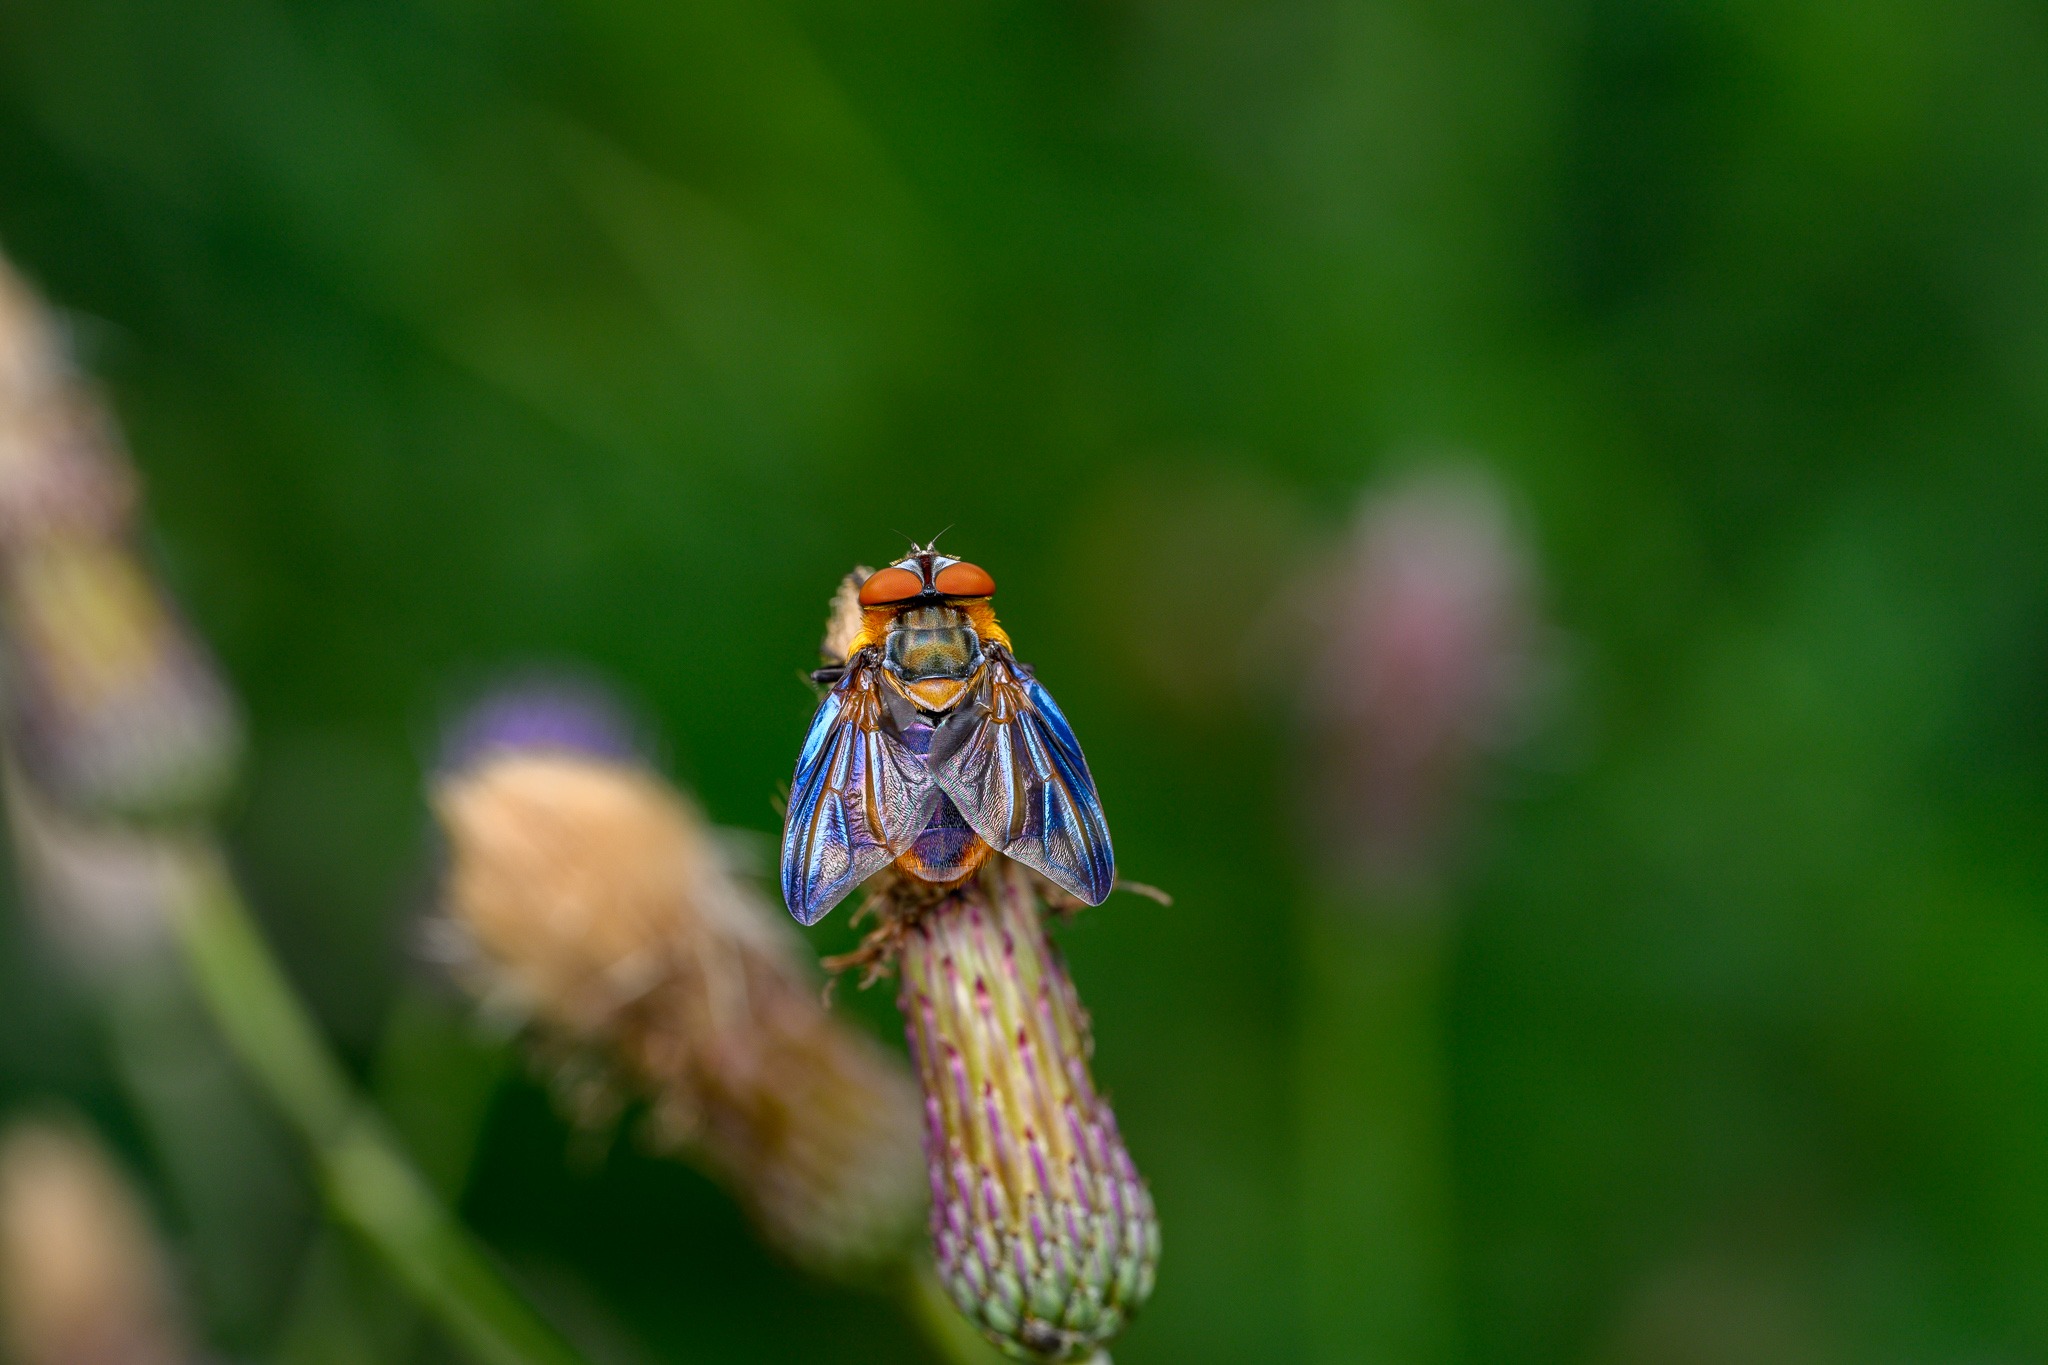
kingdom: Animalia
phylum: Arthropoda
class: Insecta
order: Diptera
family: Tachinidae
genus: Phasia
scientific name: Phasia hemiptera
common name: Blåvinget pragtsnylteflue
